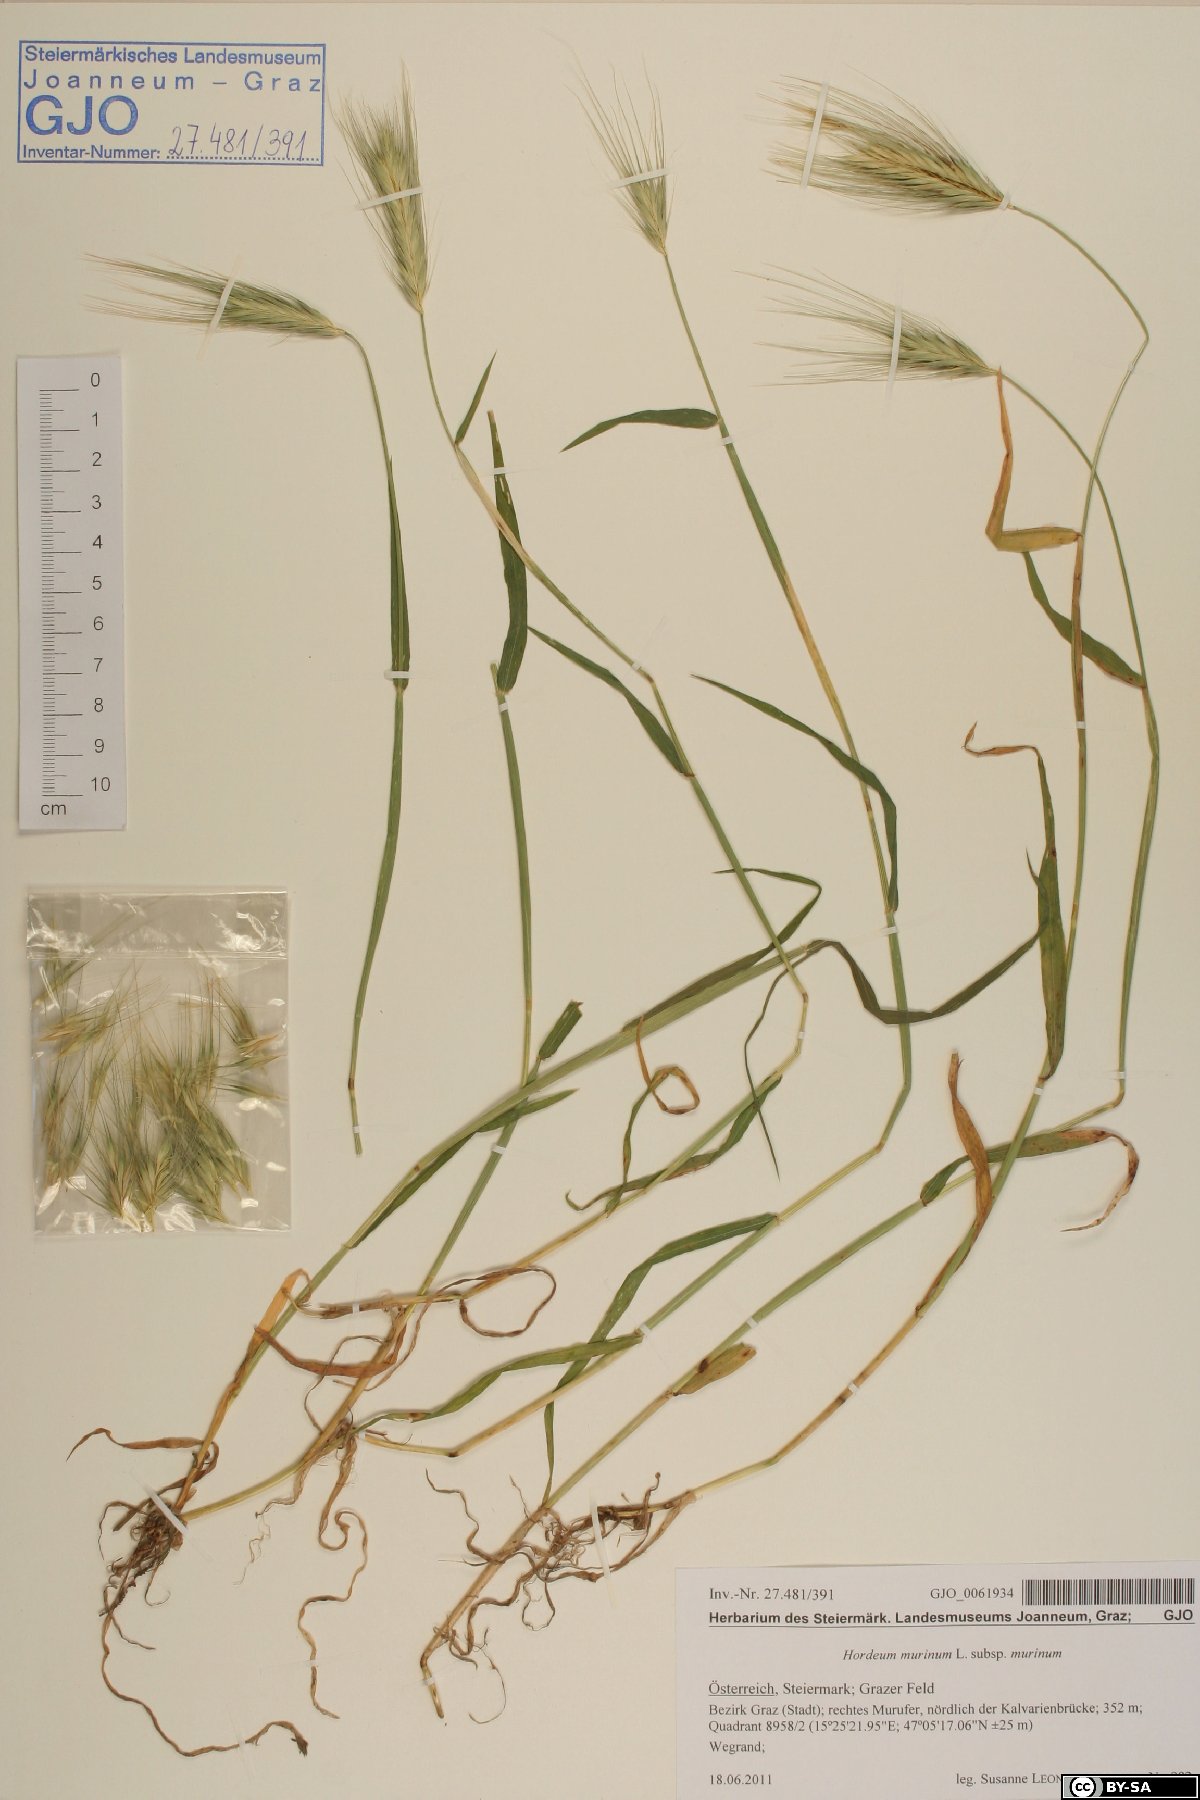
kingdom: Plantae
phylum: Tracheophyta
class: Liliopsida
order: Poales
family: Poaceae
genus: Hordeum
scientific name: Hordeum murinum
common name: Wall barley
